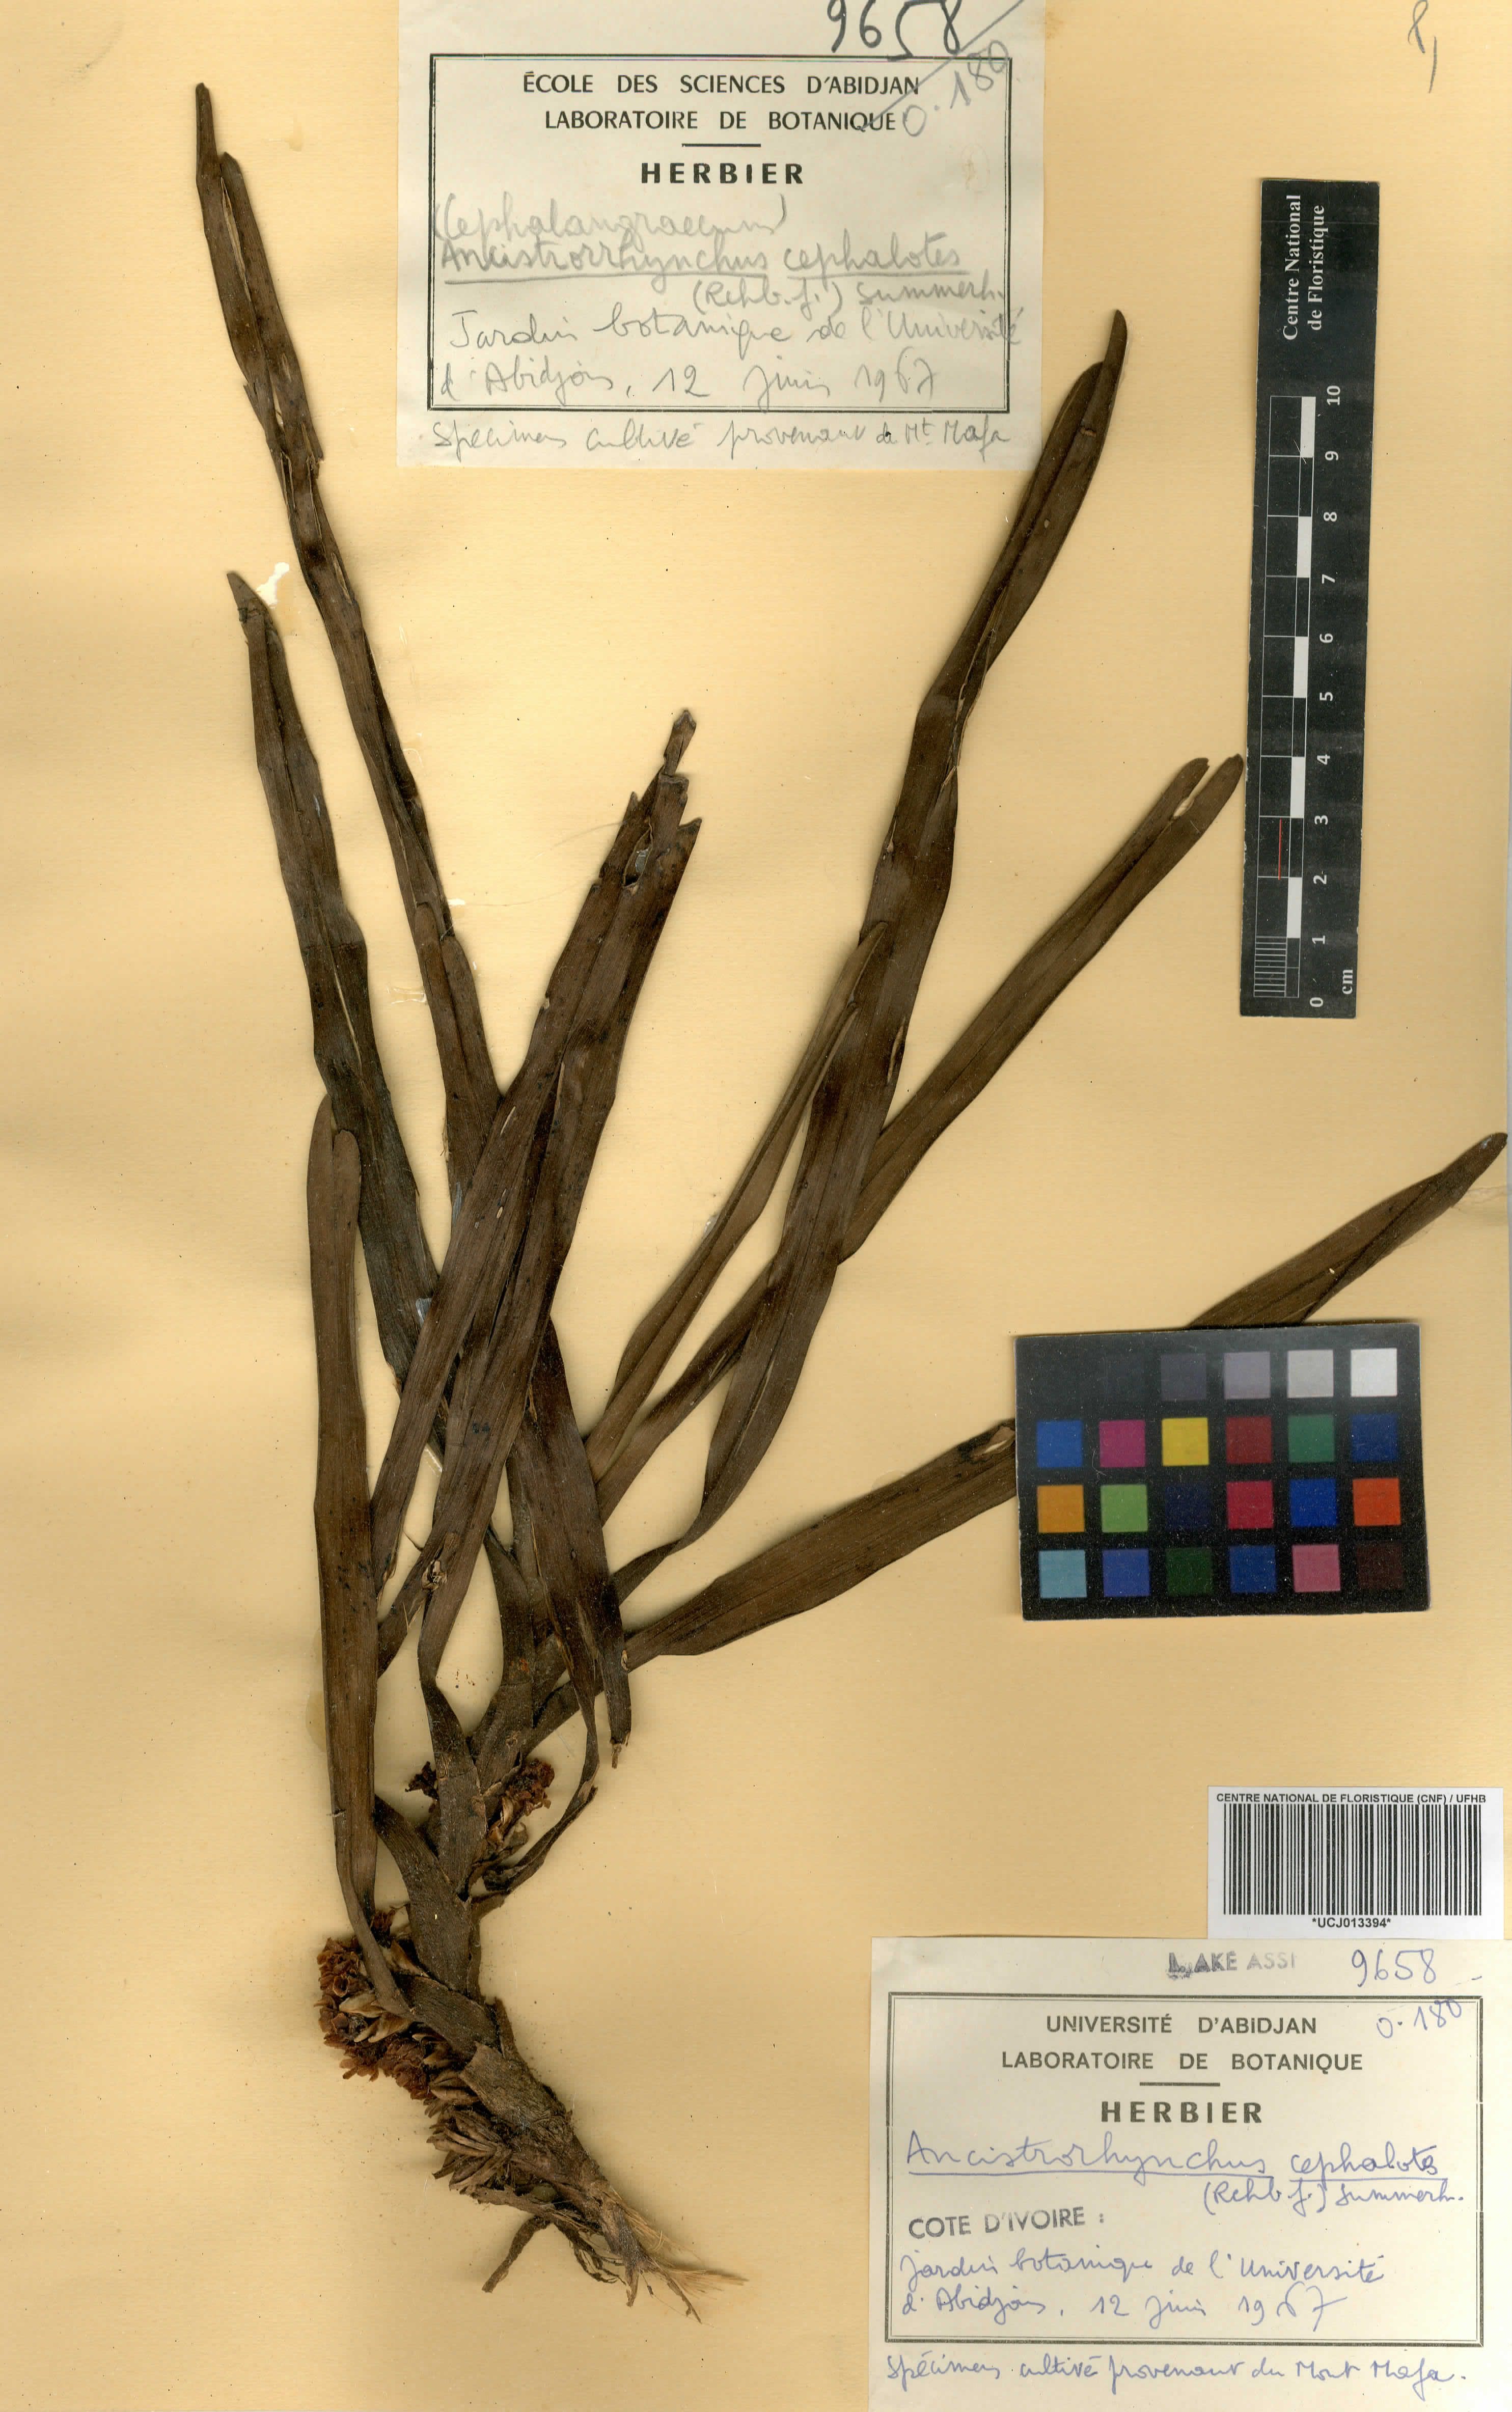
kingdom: Plantae
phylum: Tracheophyta
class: Liliopsida
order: Asparagales
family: Orchidaceae
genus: Ancistrorhynchus
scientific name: Ancistrorhynchus cephalotes
